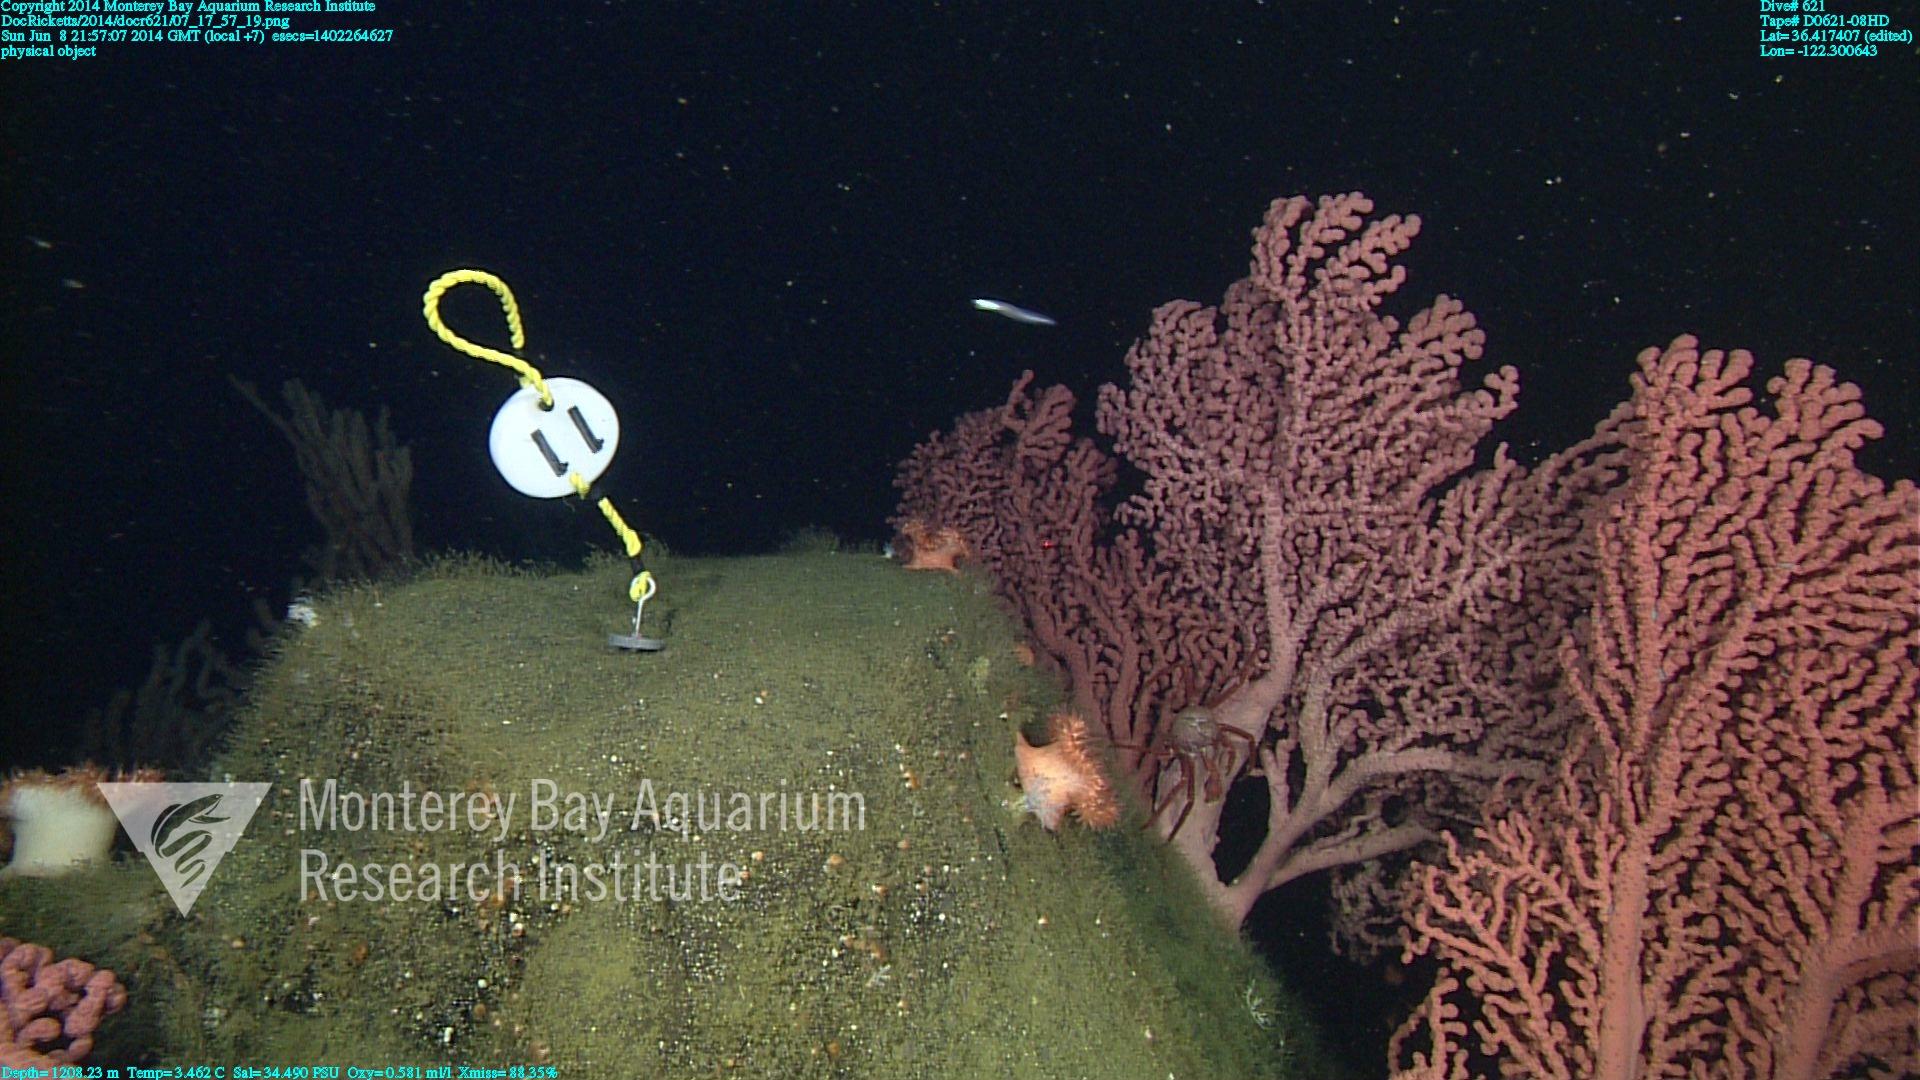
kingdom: Animalia
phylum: Cnidaria
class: Anthozoa
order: Scleralcyonacea
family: Coralliidae
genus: Paragorgia
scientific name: Paragorgia arborea
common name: Bubble gum coral
